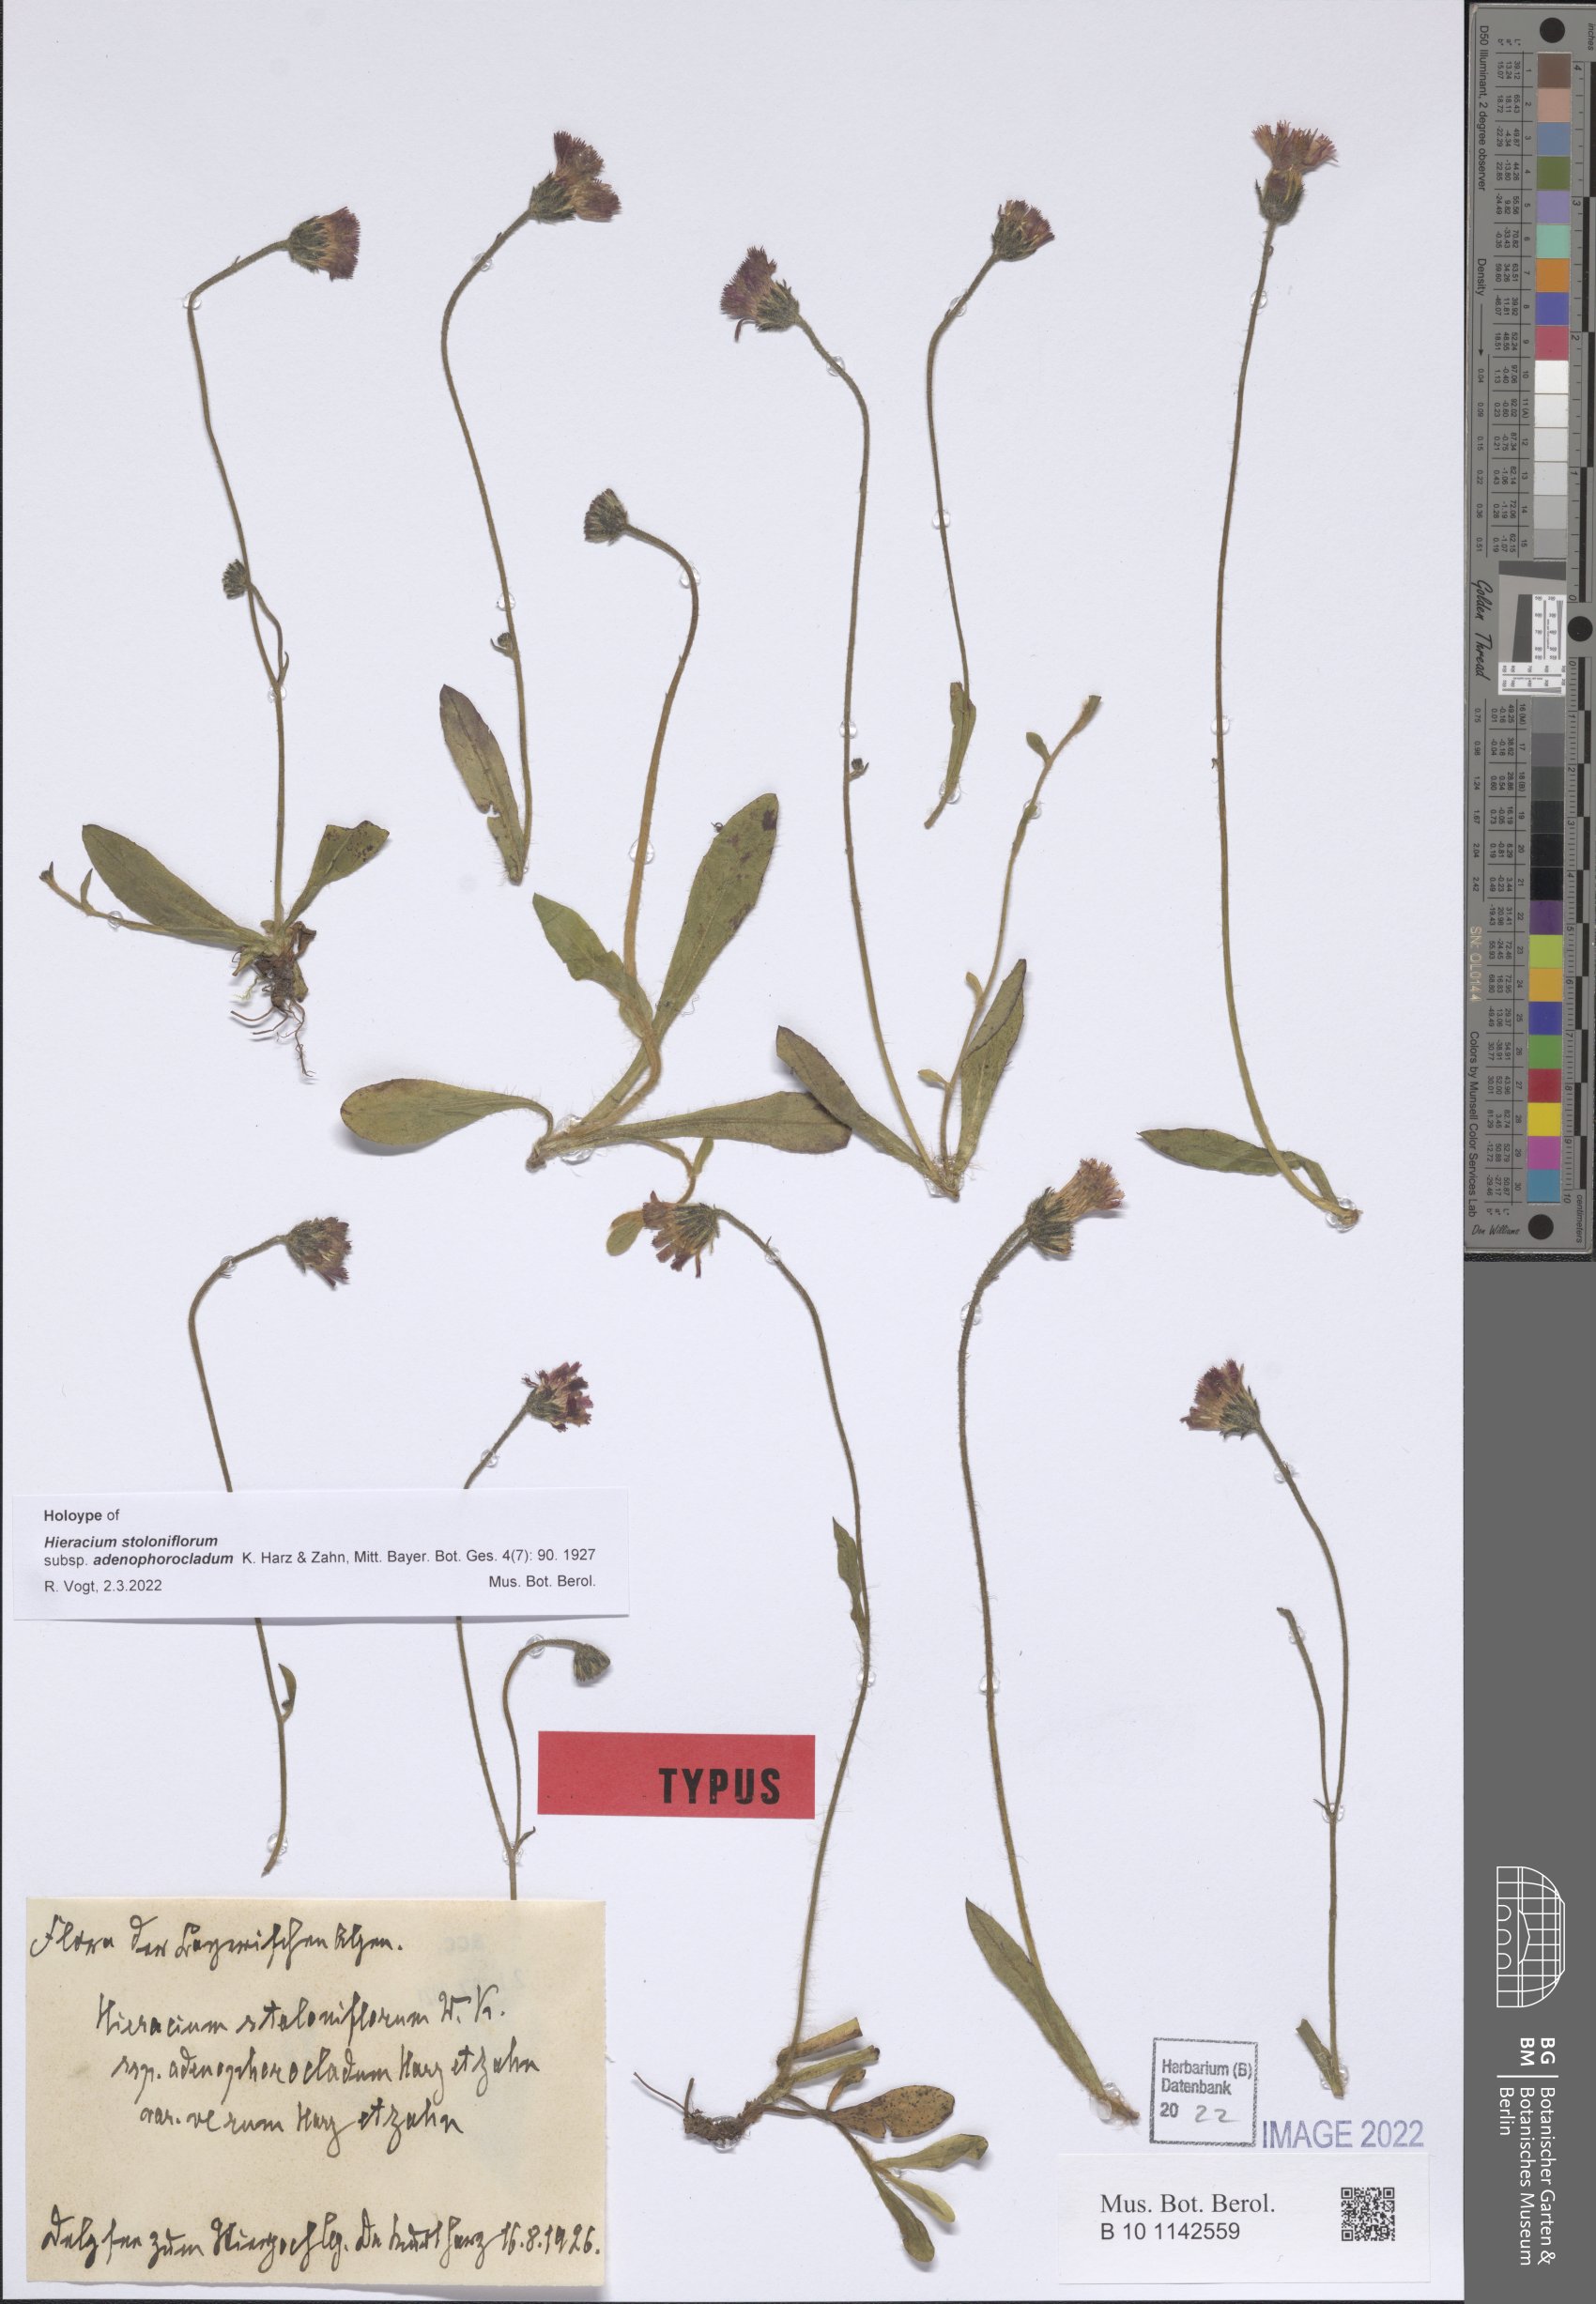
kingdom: Plantae
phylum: Tracheophyta
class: Magnoliopsida
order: Asterales
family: Asteraceae
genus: Pilosella
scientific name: Pilosella stoloniflora
